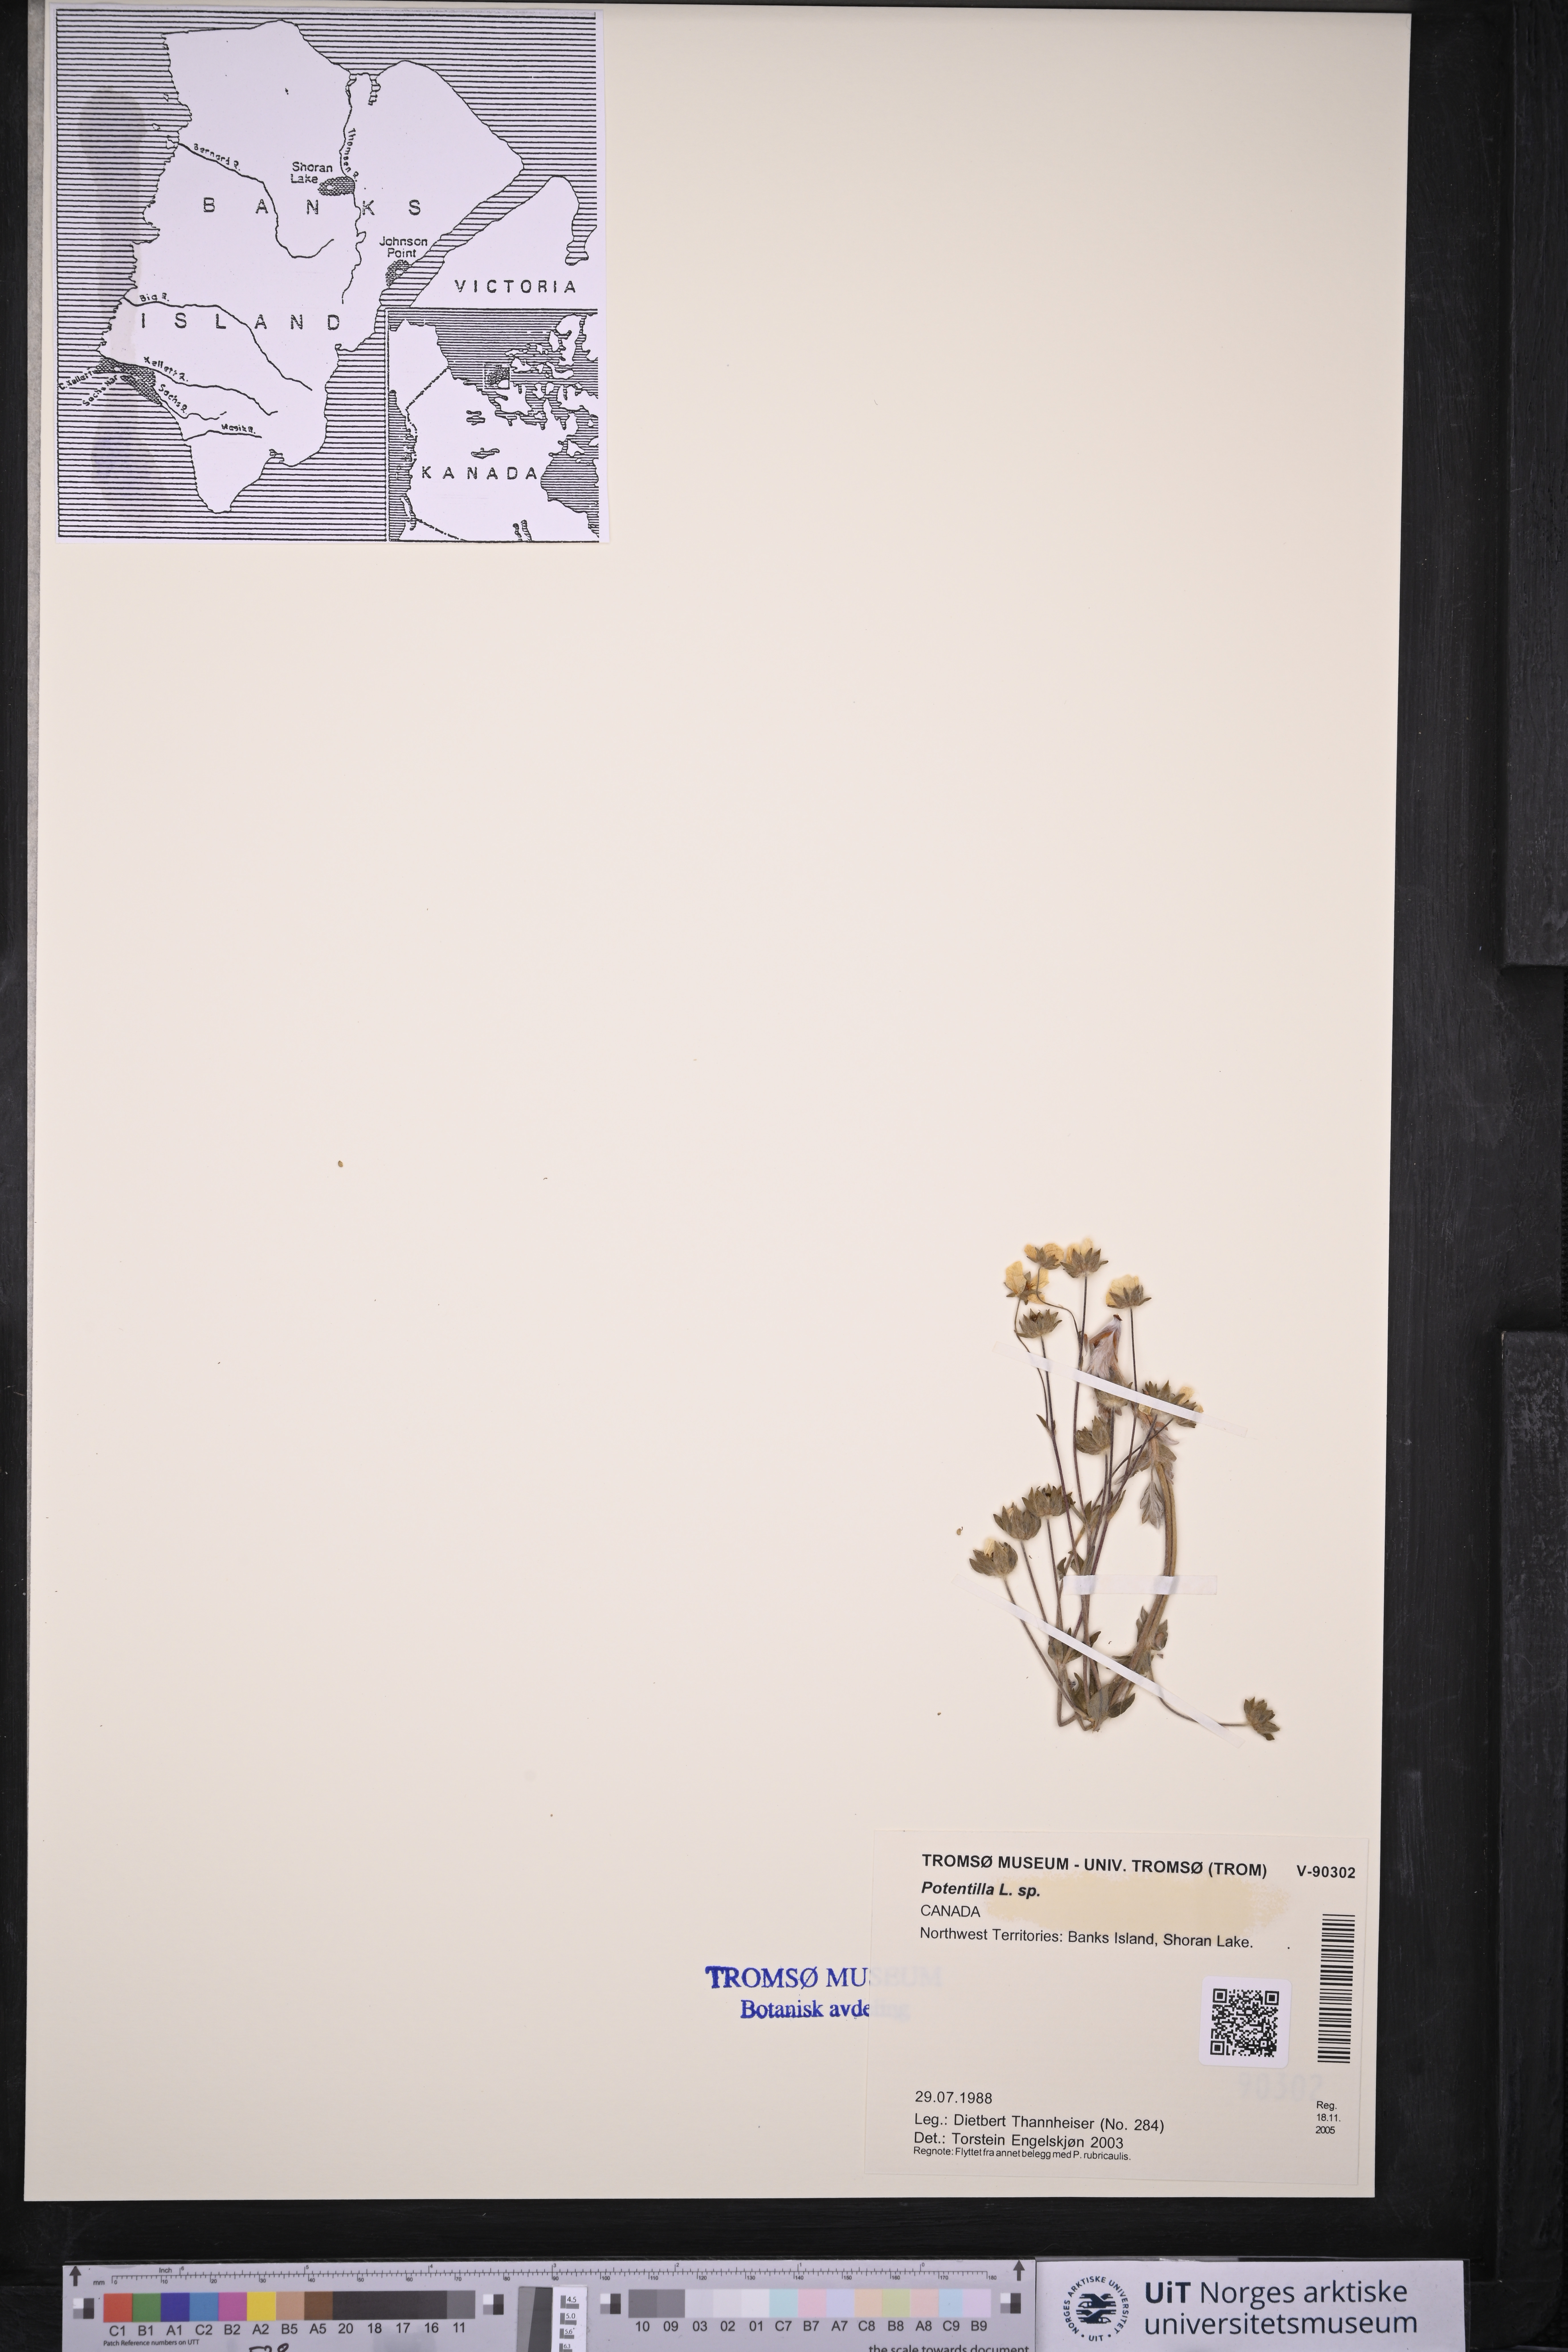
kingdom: Plantae
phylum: Tracheophyta
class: Magnoliopsida
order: Rosales
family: Rosaceae
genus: Potentilla
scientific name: Potentilla
